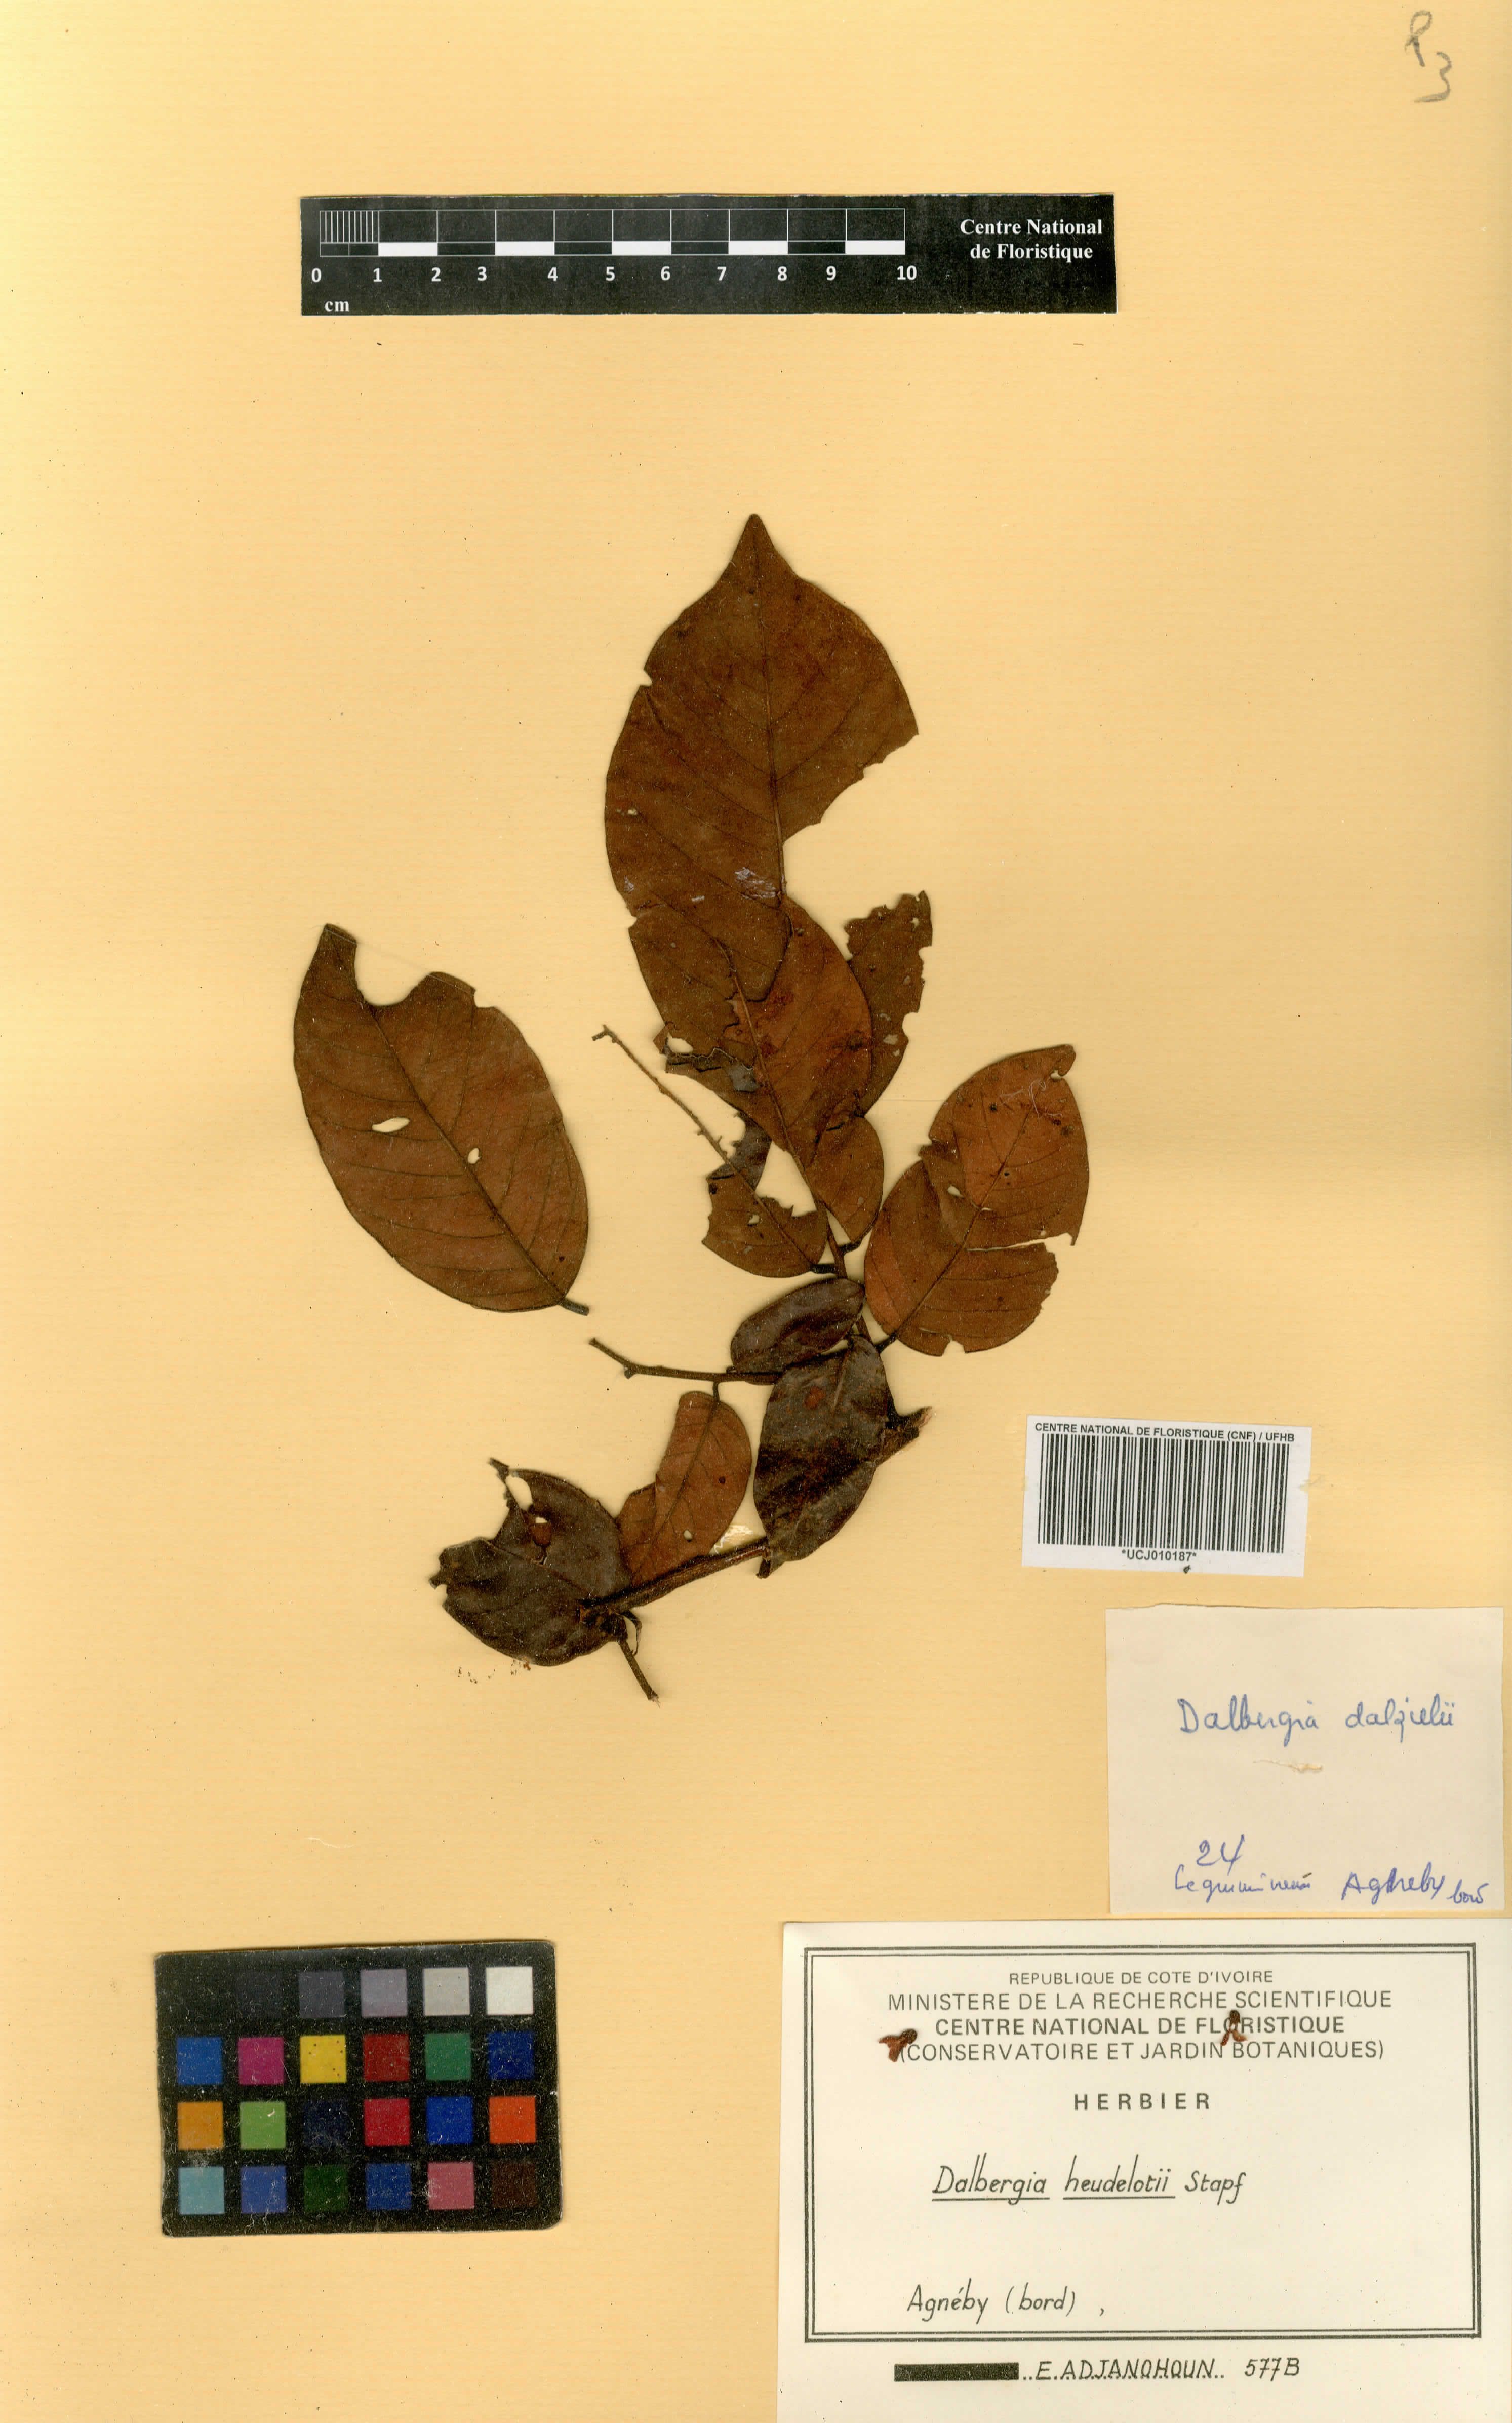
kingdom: Plantae
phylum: Tracheophyta
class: Magnoliopsida
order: Fabales
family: Fabaceae
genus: Dalbergia
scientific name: Dalbergia heudelotii
